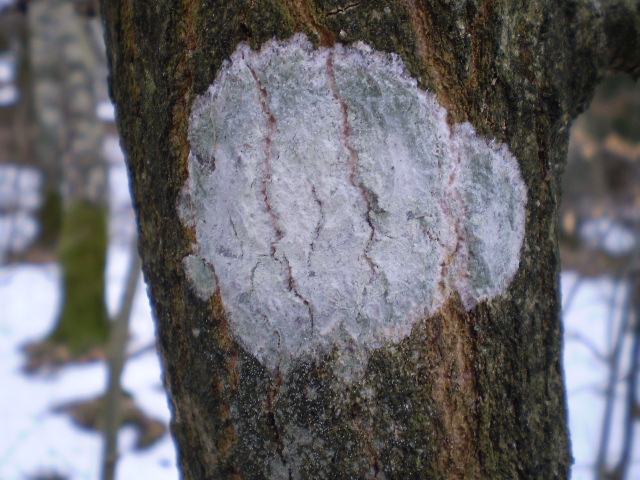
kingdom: Fungi
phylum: Ascomycota
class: Lecanoromycetes
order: Ostropales
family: Phlyctidaceae
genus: Phlyctis
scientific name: Phlyctis argena
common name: almindelig sølvlav
